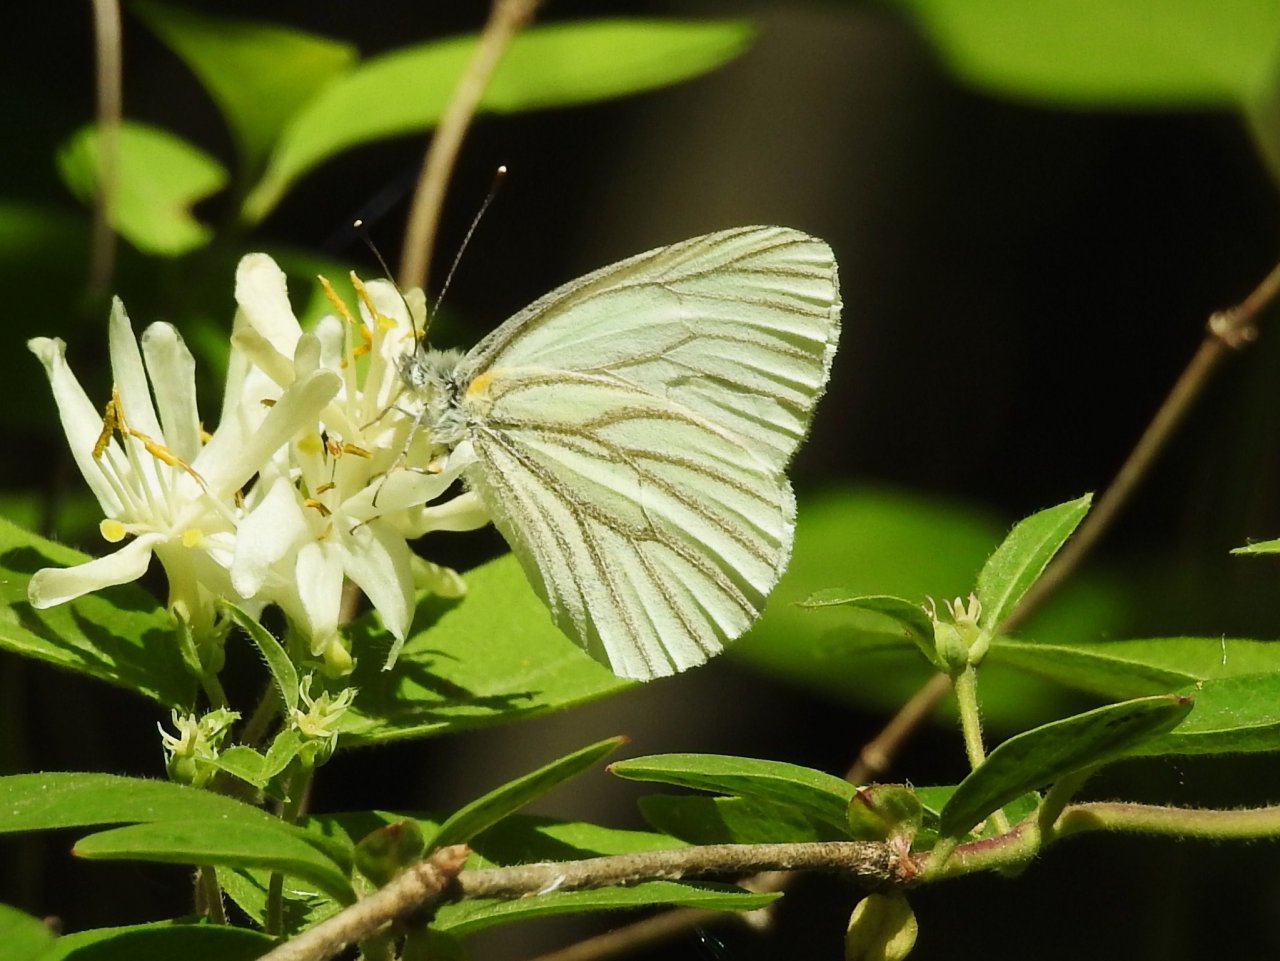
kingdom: Animalia
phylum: Arthropoda
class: Insecta
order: Lepidoptera
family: Pieridae
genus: Pieris
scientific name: Pieris oleracea
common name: Mustard White
